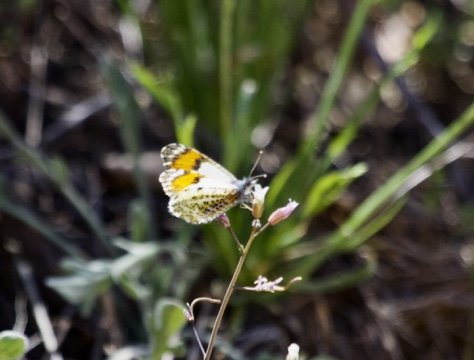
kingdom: Animalia
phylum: Arthropoda
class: Insecta
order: Lepidoptera
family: Pieridae
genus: Anthocharis
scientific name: Anthocharis cethura
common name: Desert Orangetip
